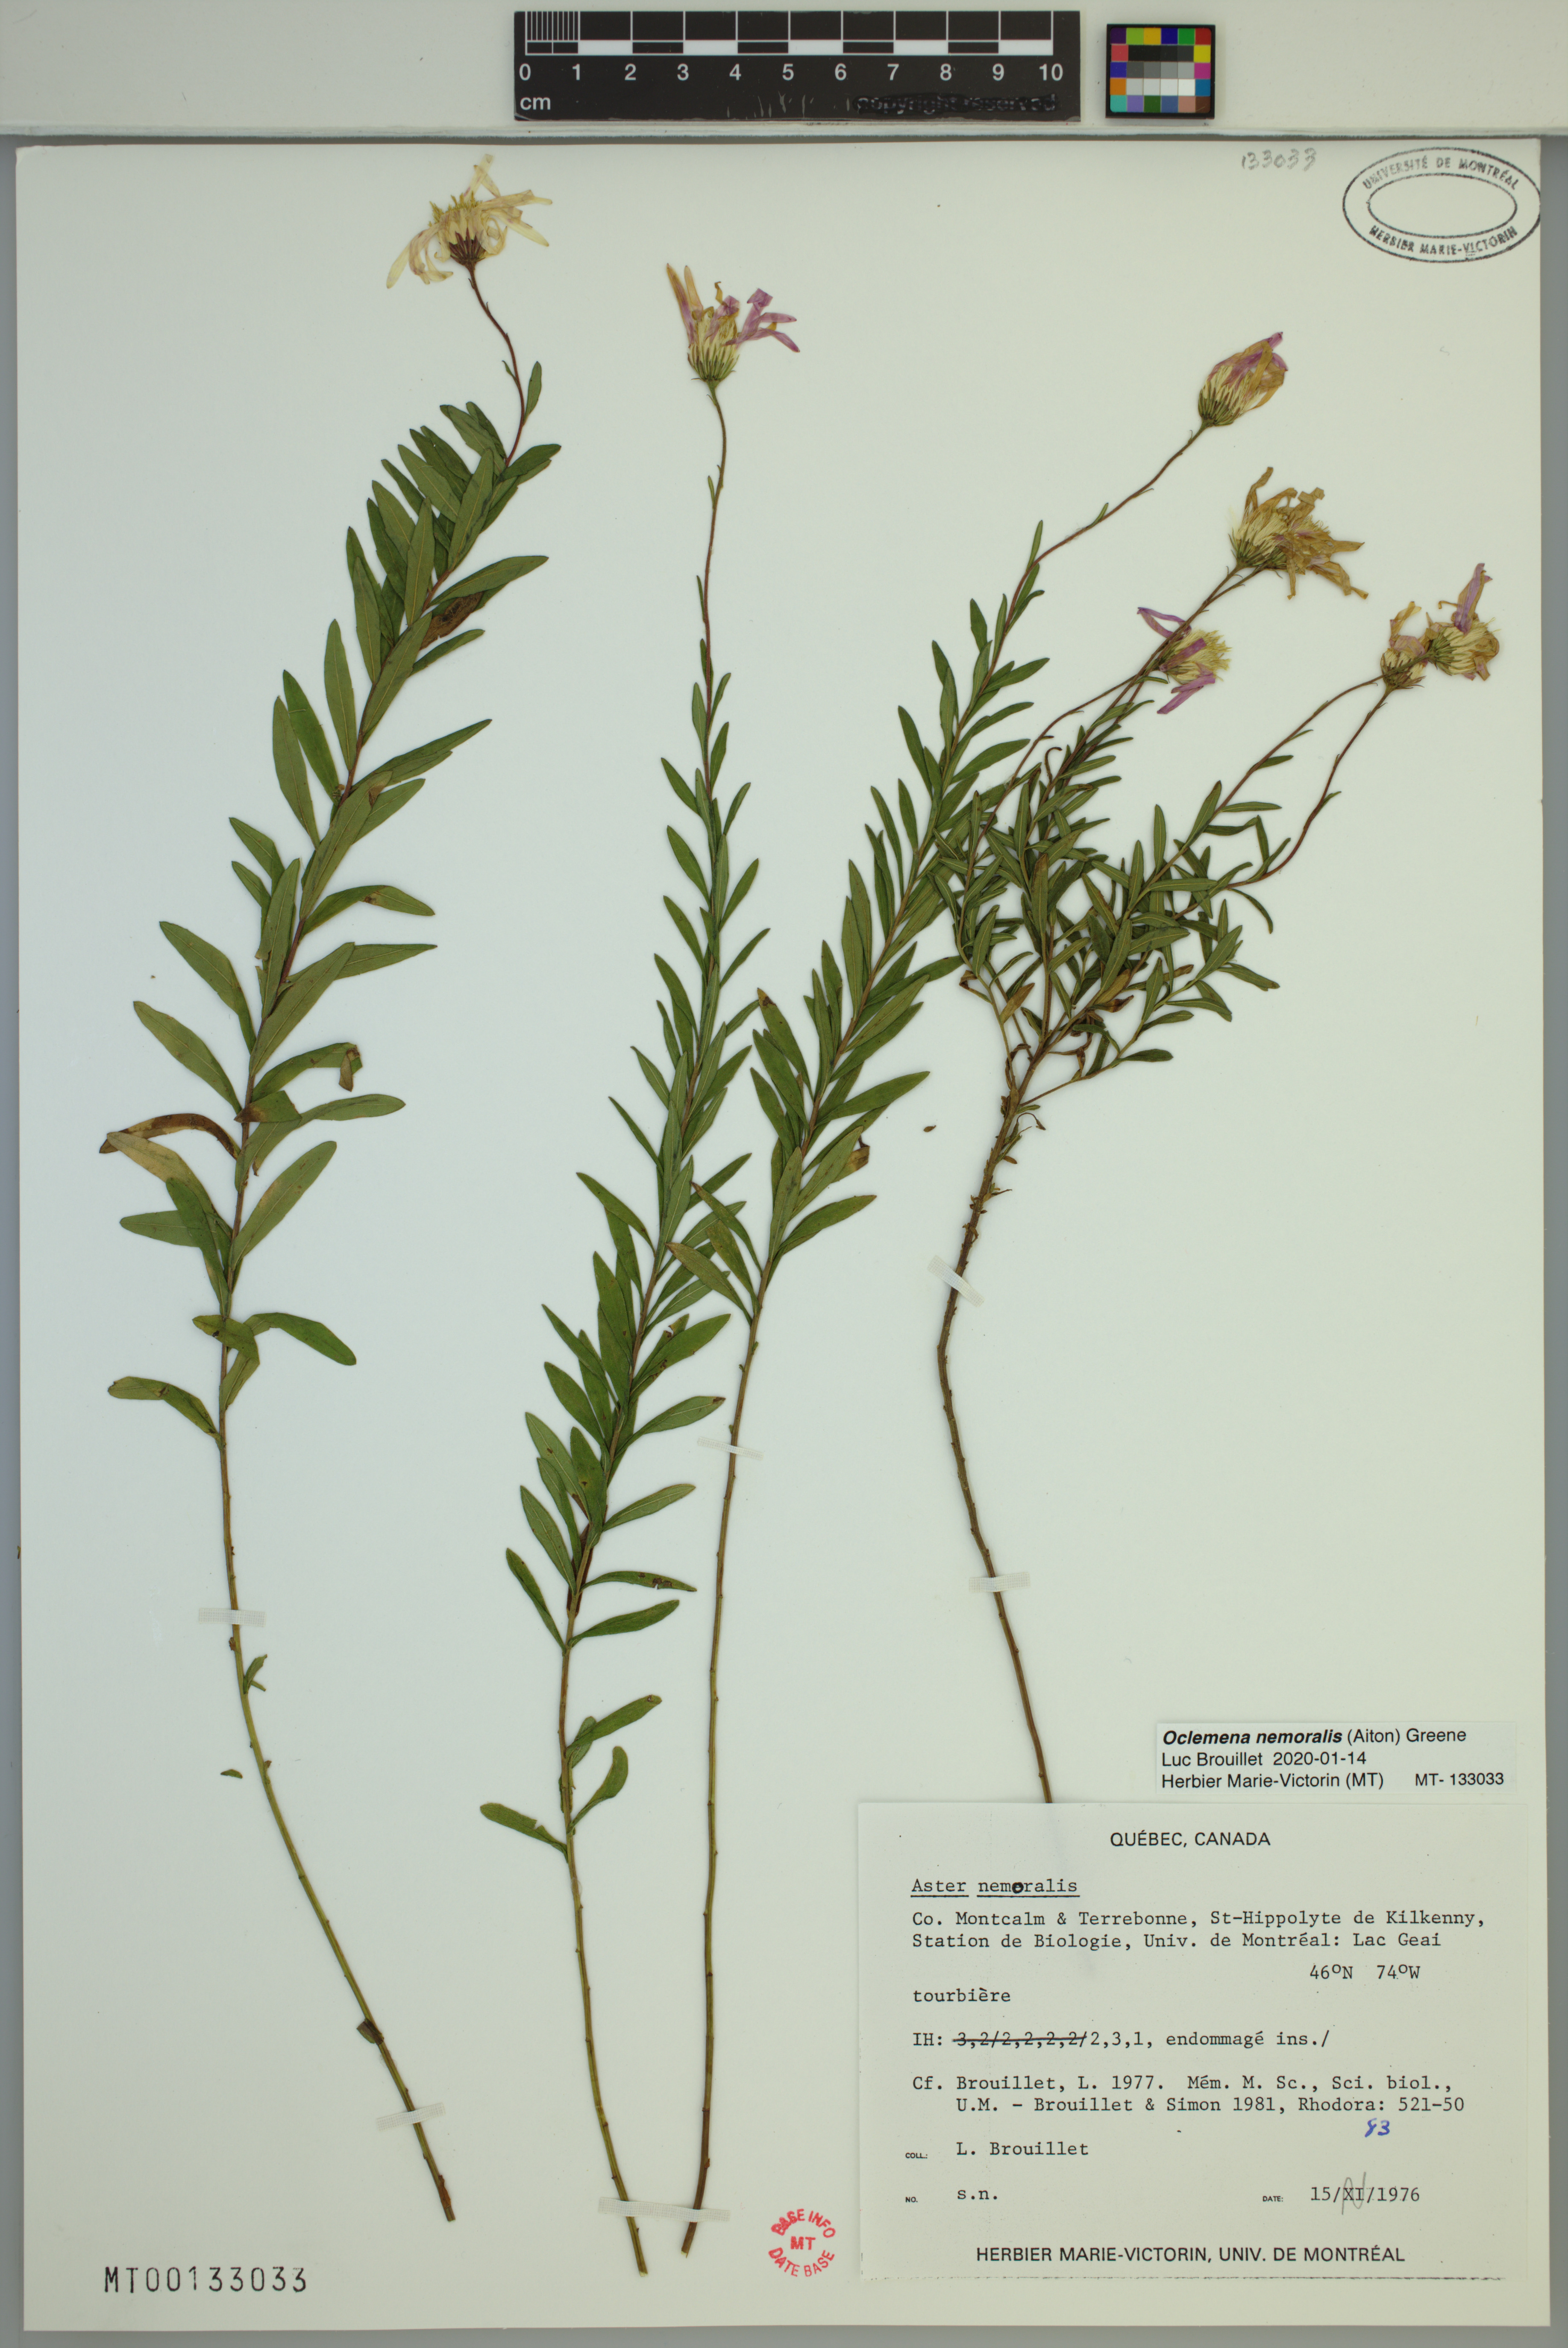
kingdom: Plantae
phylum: Tracheophyta
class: Magnoliopsida
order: Asterales
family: Asteraceae
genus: Oclemena
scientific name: Oclemena nemoralis
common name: Bog aster
